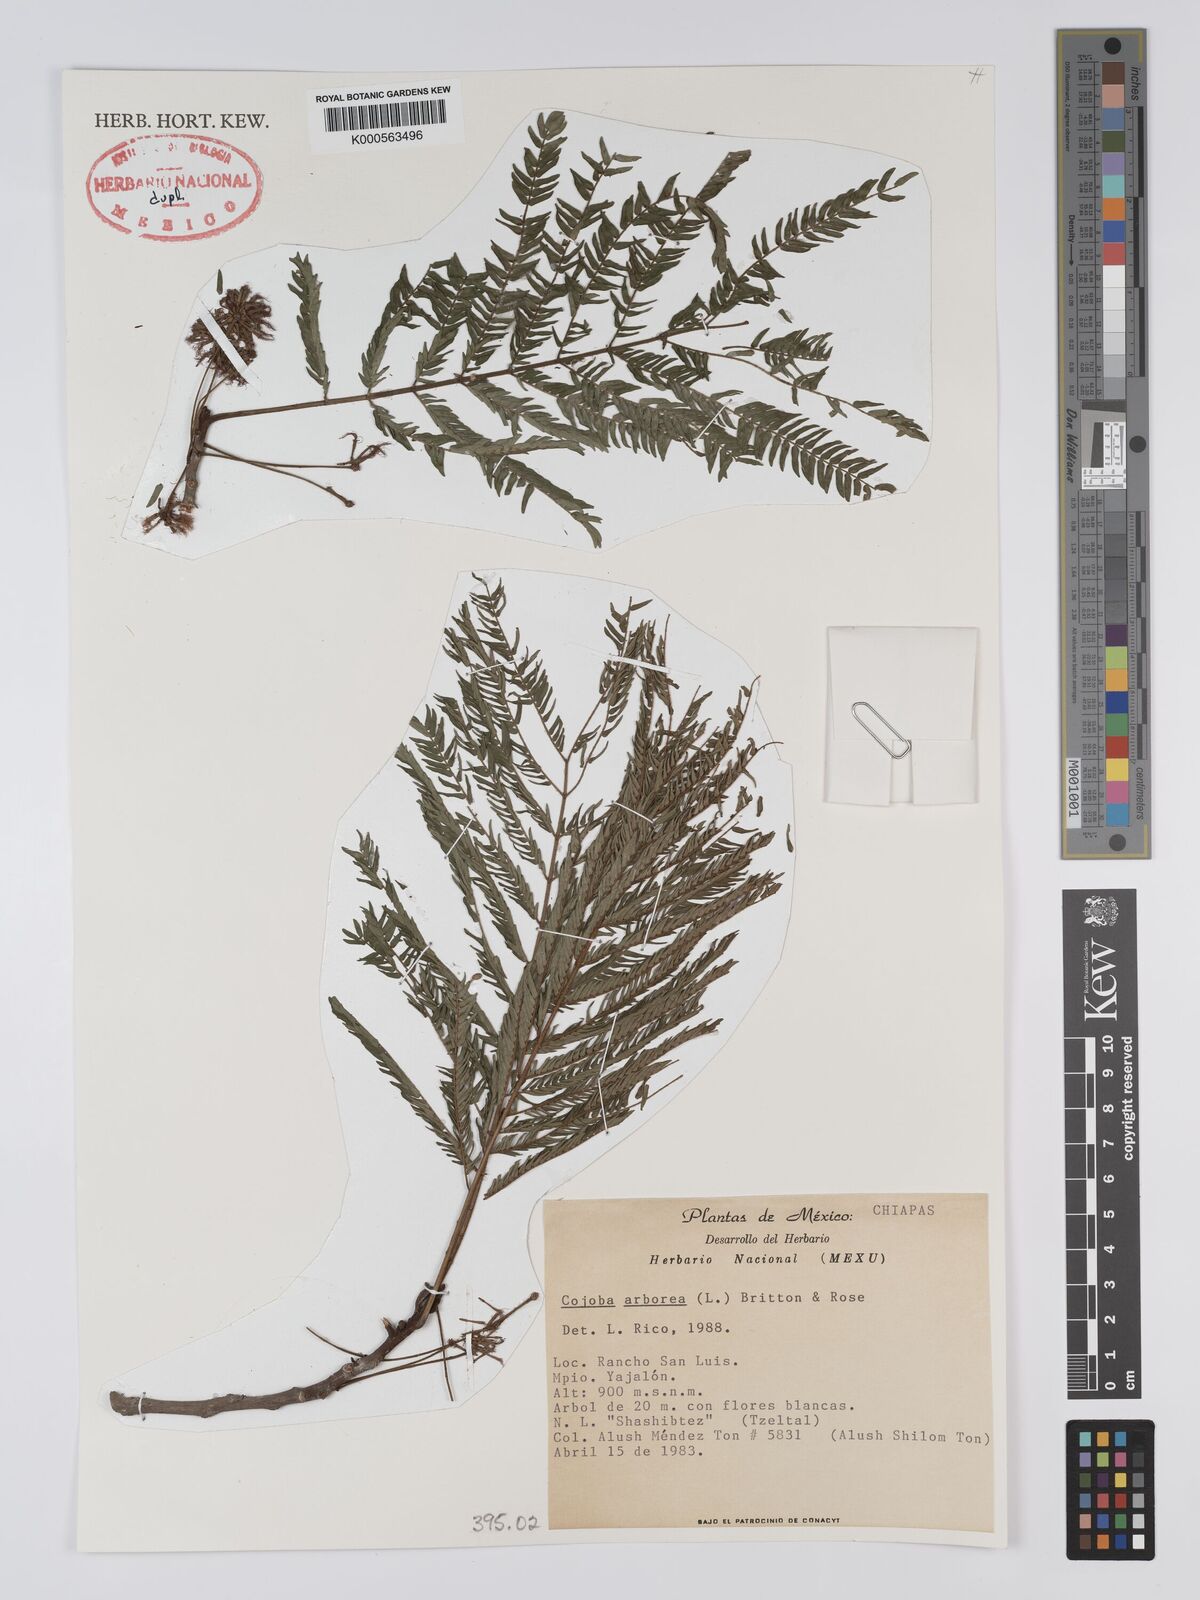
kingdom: Plantae
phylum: Tracheophyta
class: Magnoliopsida
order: Fabales
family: Fabaceae
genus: Cojoba
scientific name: Cojoba arborea
